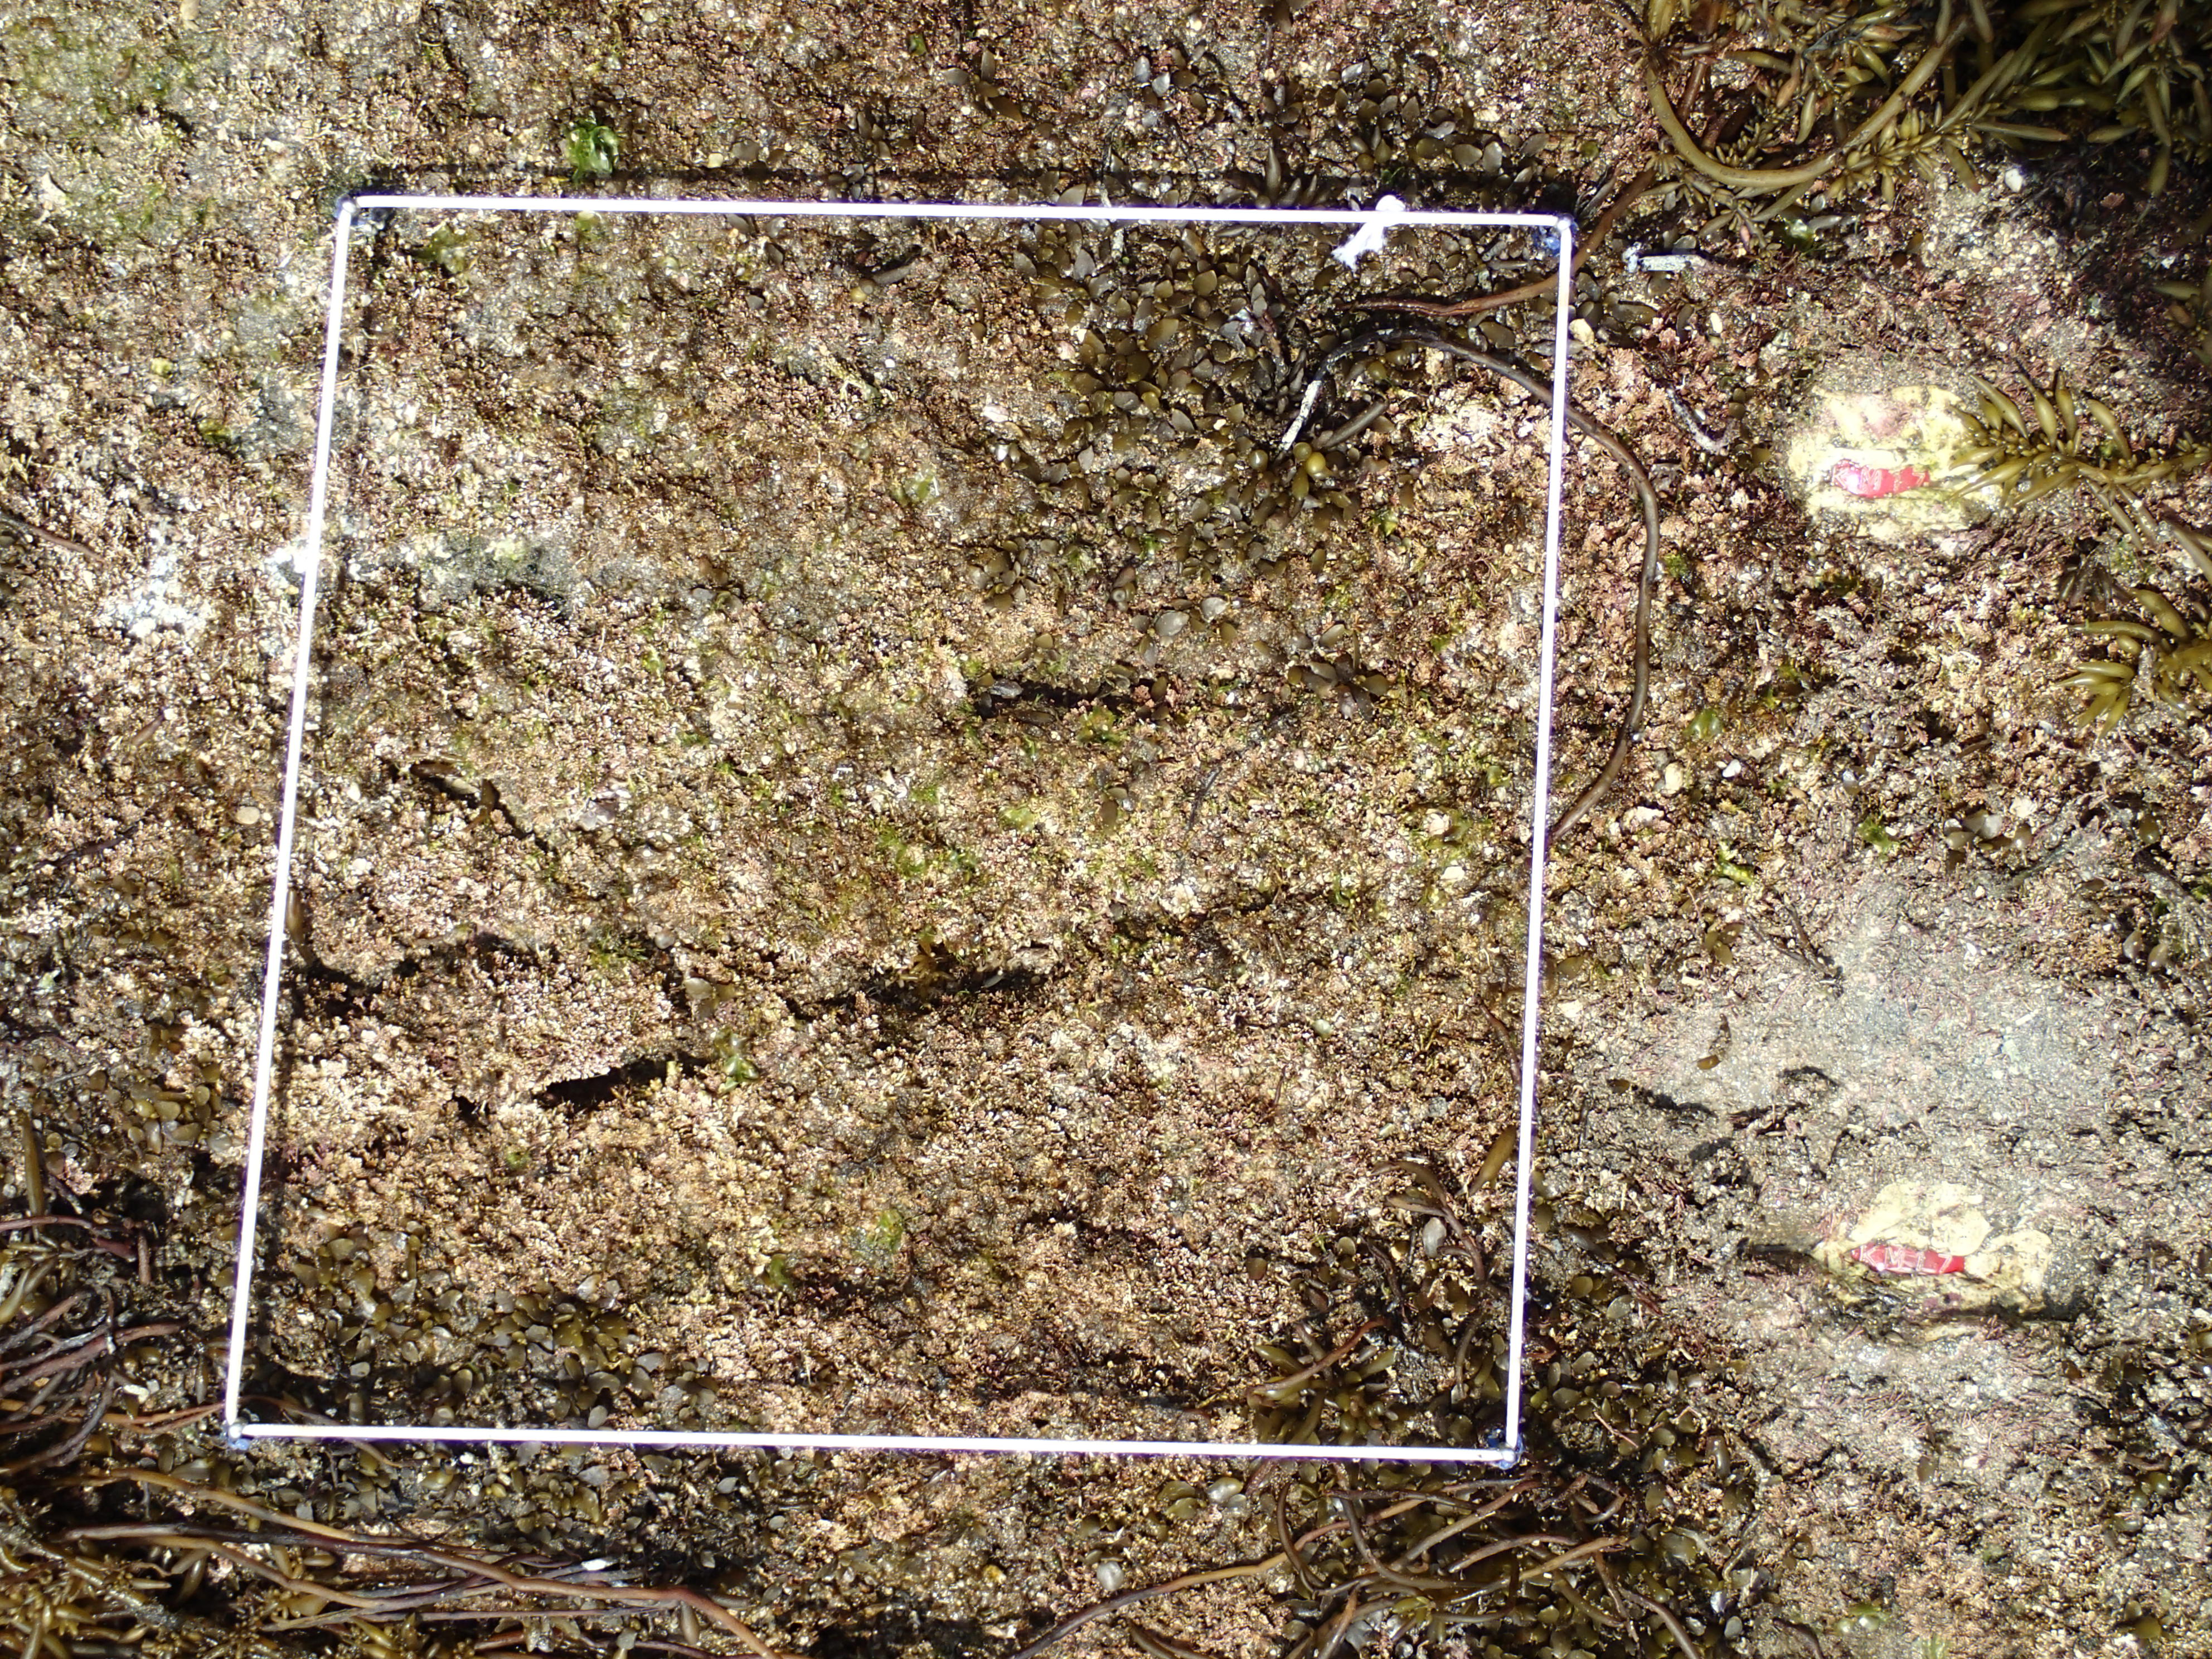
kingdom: Chromista
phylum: Ochrophyta
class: Phaeophyceae
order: Fucales
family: Sargassaceae
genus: Sargassum
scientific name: Sargassum fusiforme
